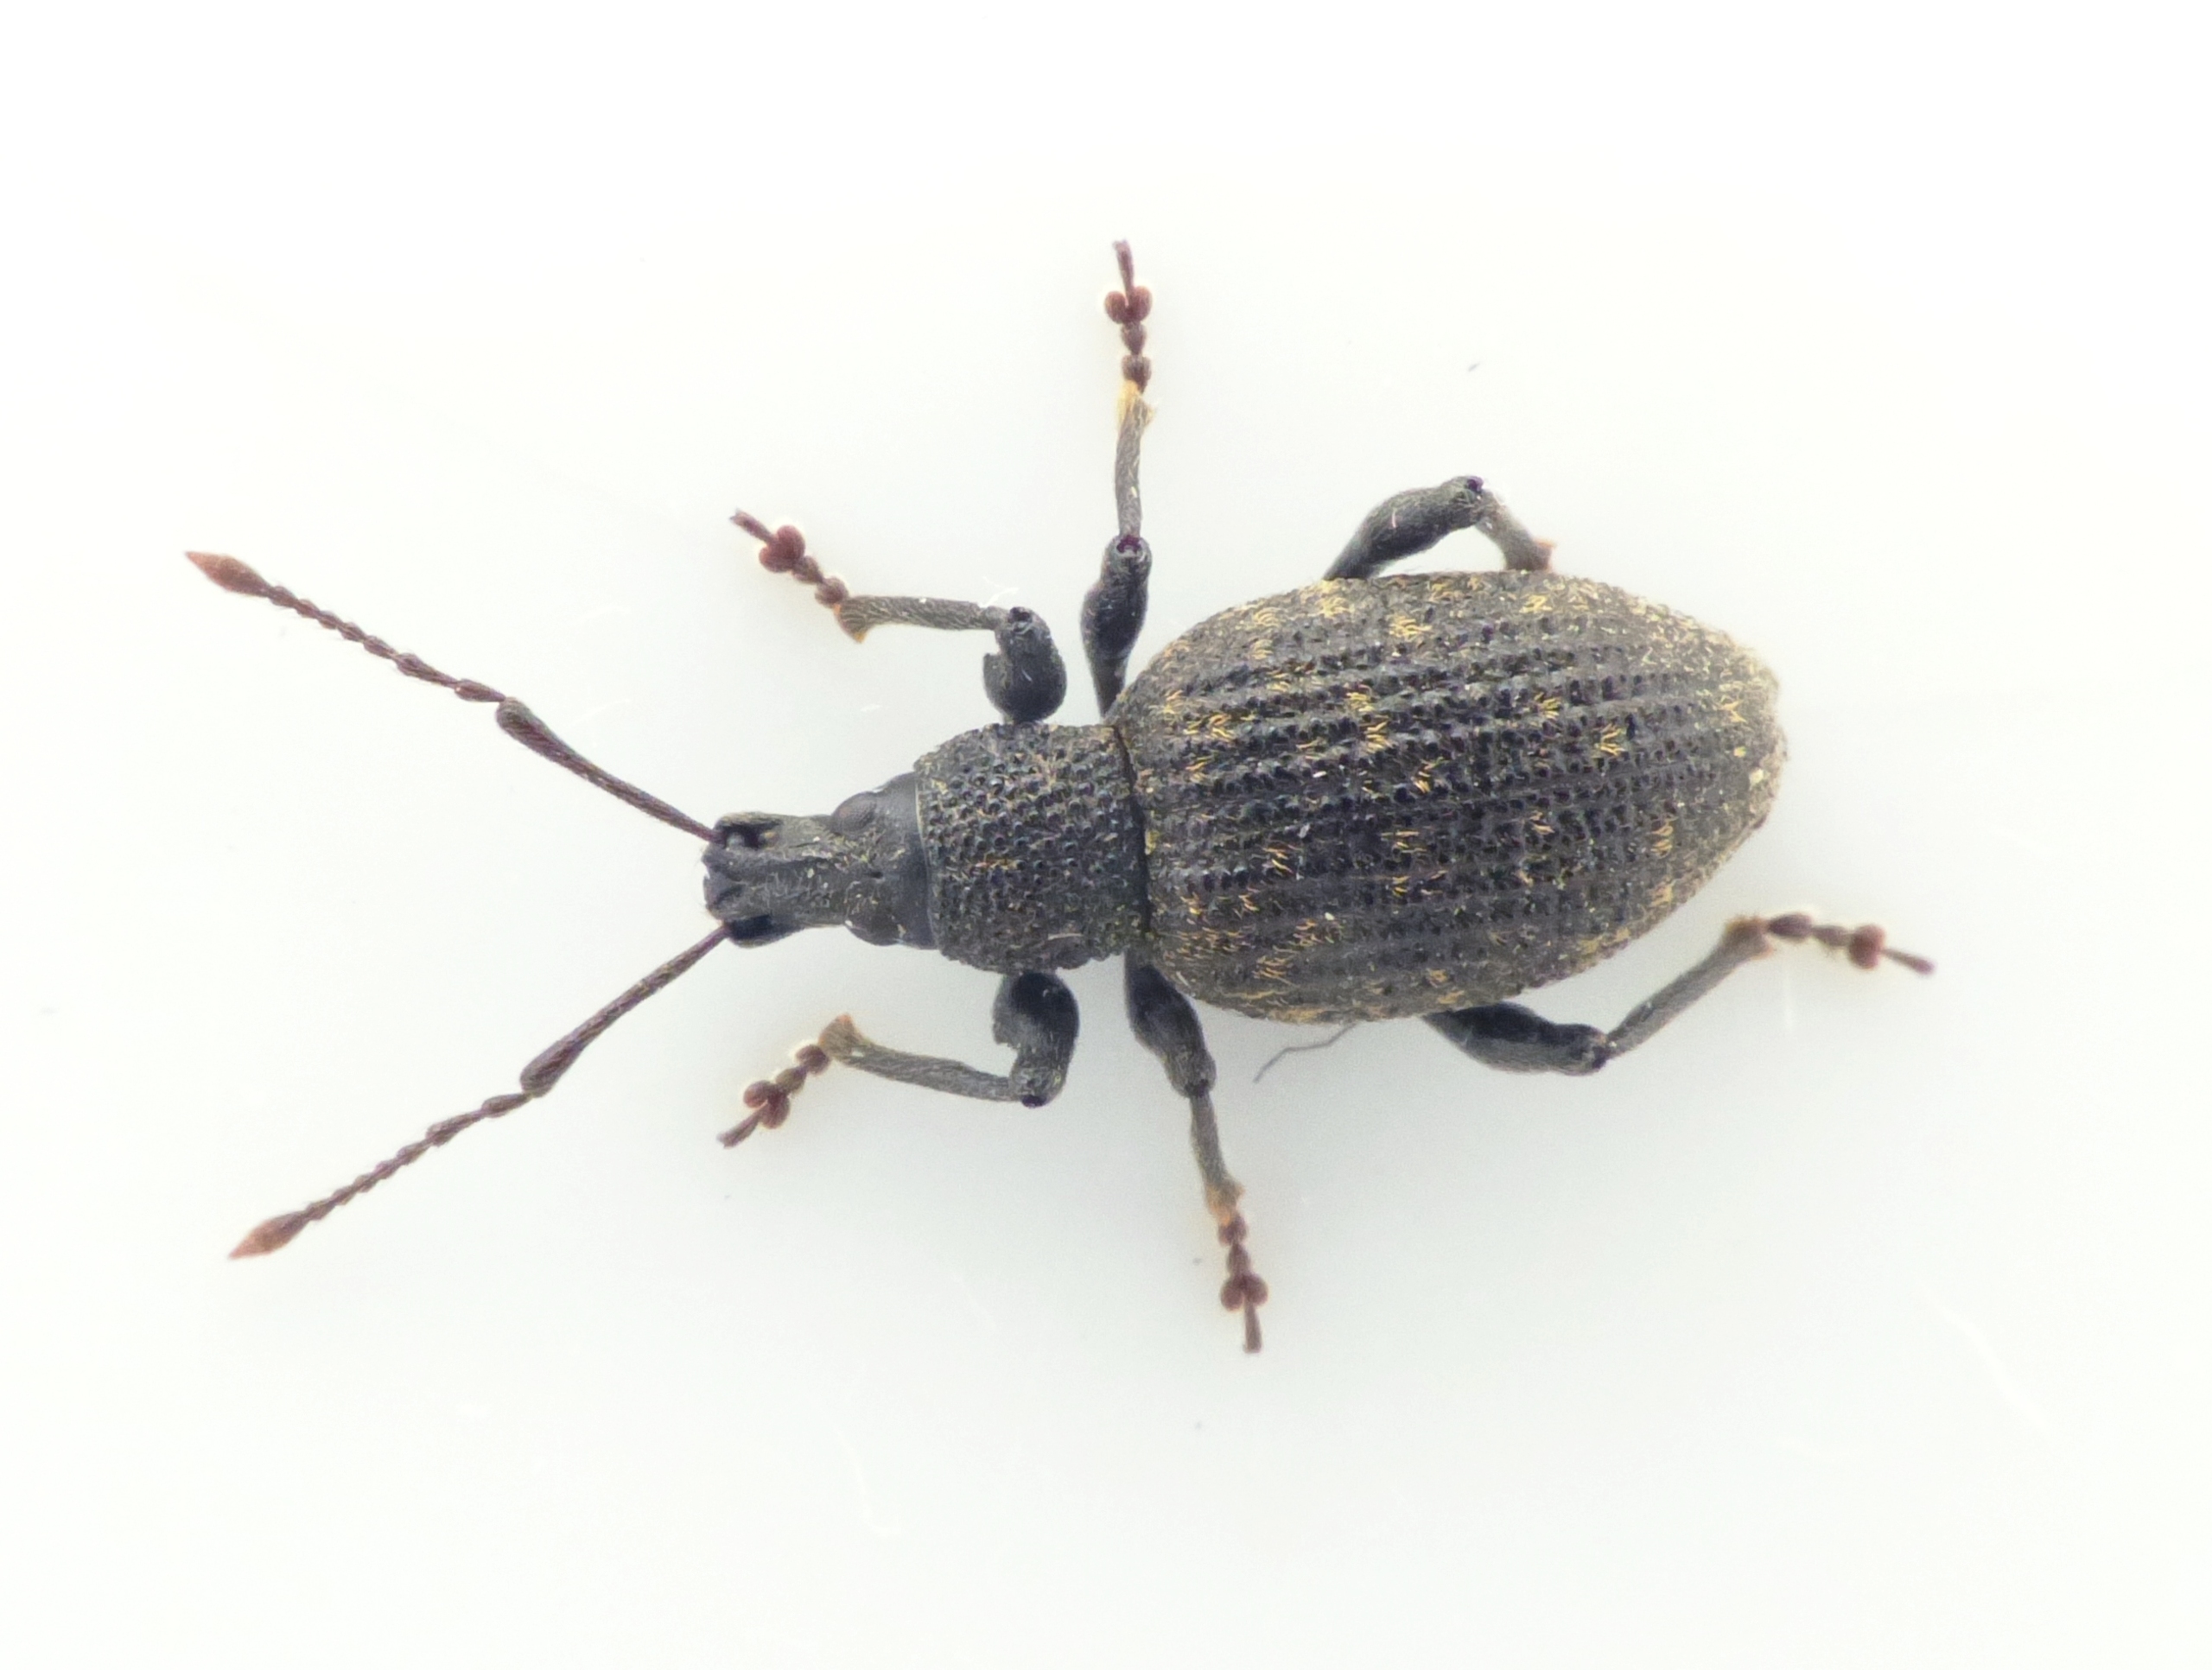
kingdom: Animalia
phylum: Arthropoda
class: Insecta
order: Coleoptera
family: Curculionidae
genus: Otiorhynchus
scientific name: Otiorhynchus sulcatus
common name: Væksthussnudebille
